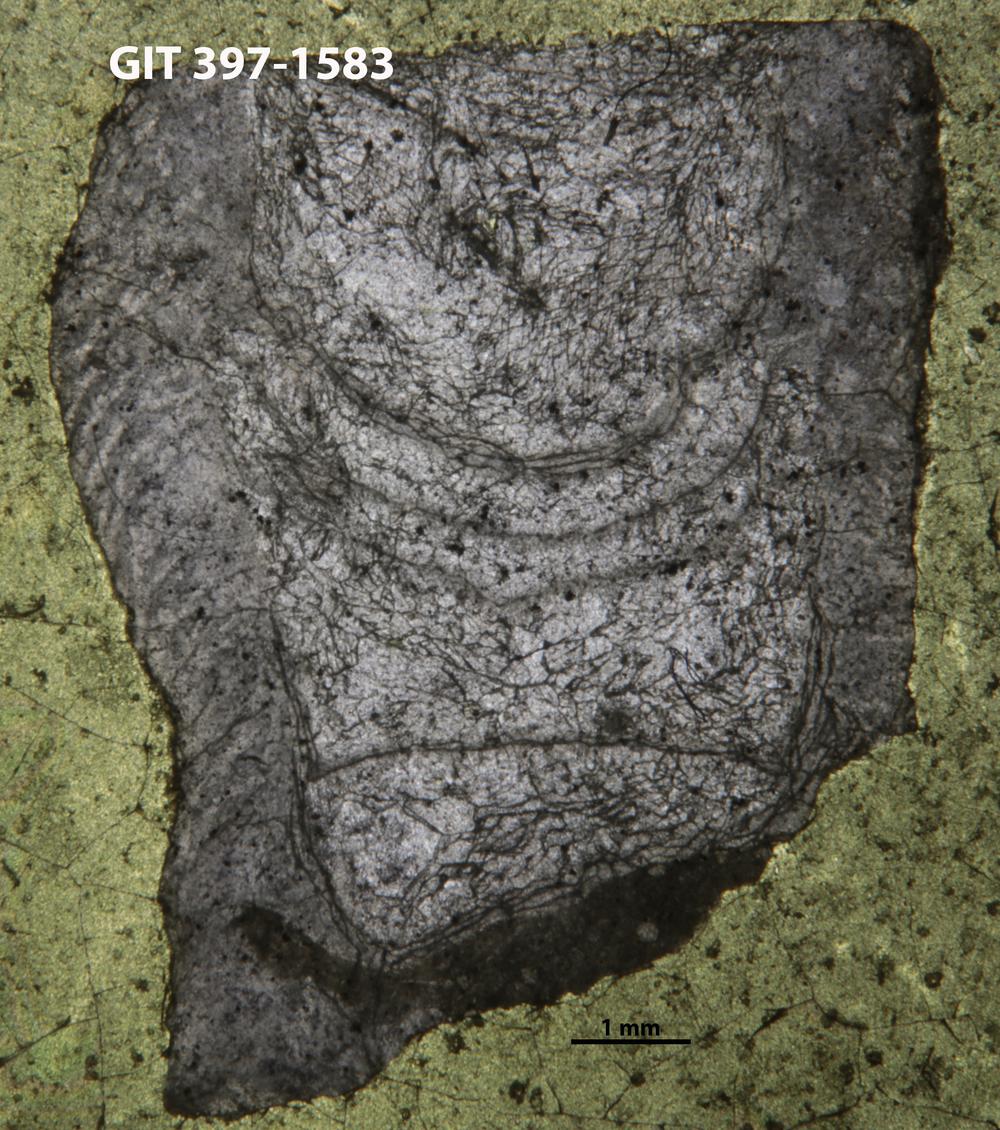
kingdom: Animalia
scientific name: Animalia
